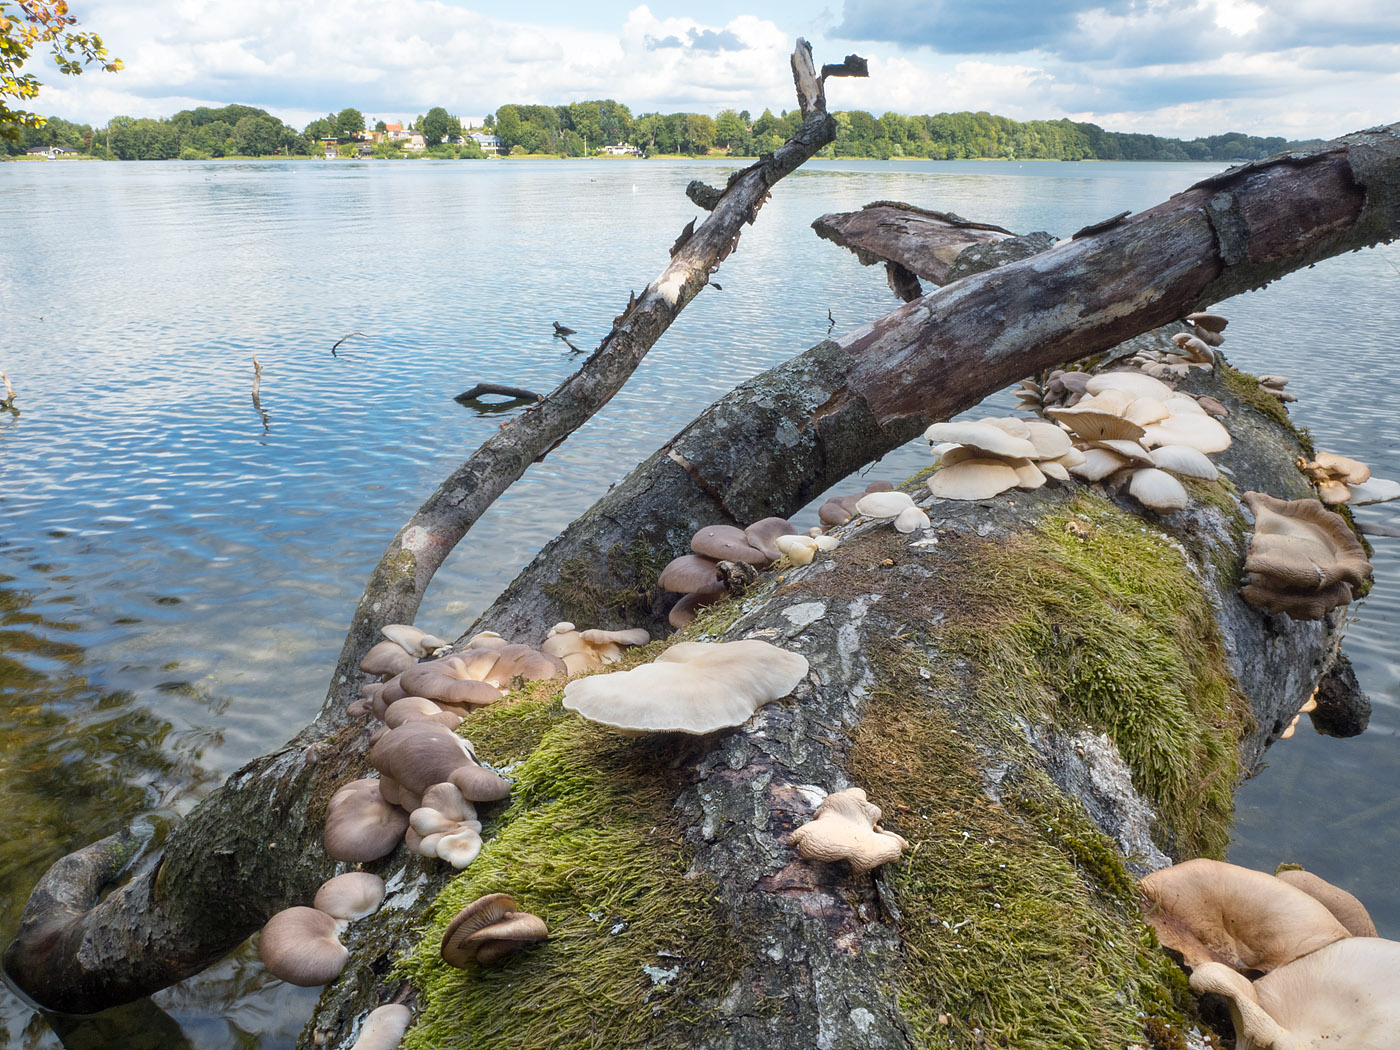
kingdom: Fungi
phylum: Basidiomycota
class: Agaricomycetes
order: Agaricales
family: Pleurotaceae
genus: Pleurotus
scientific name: Pleurotus
